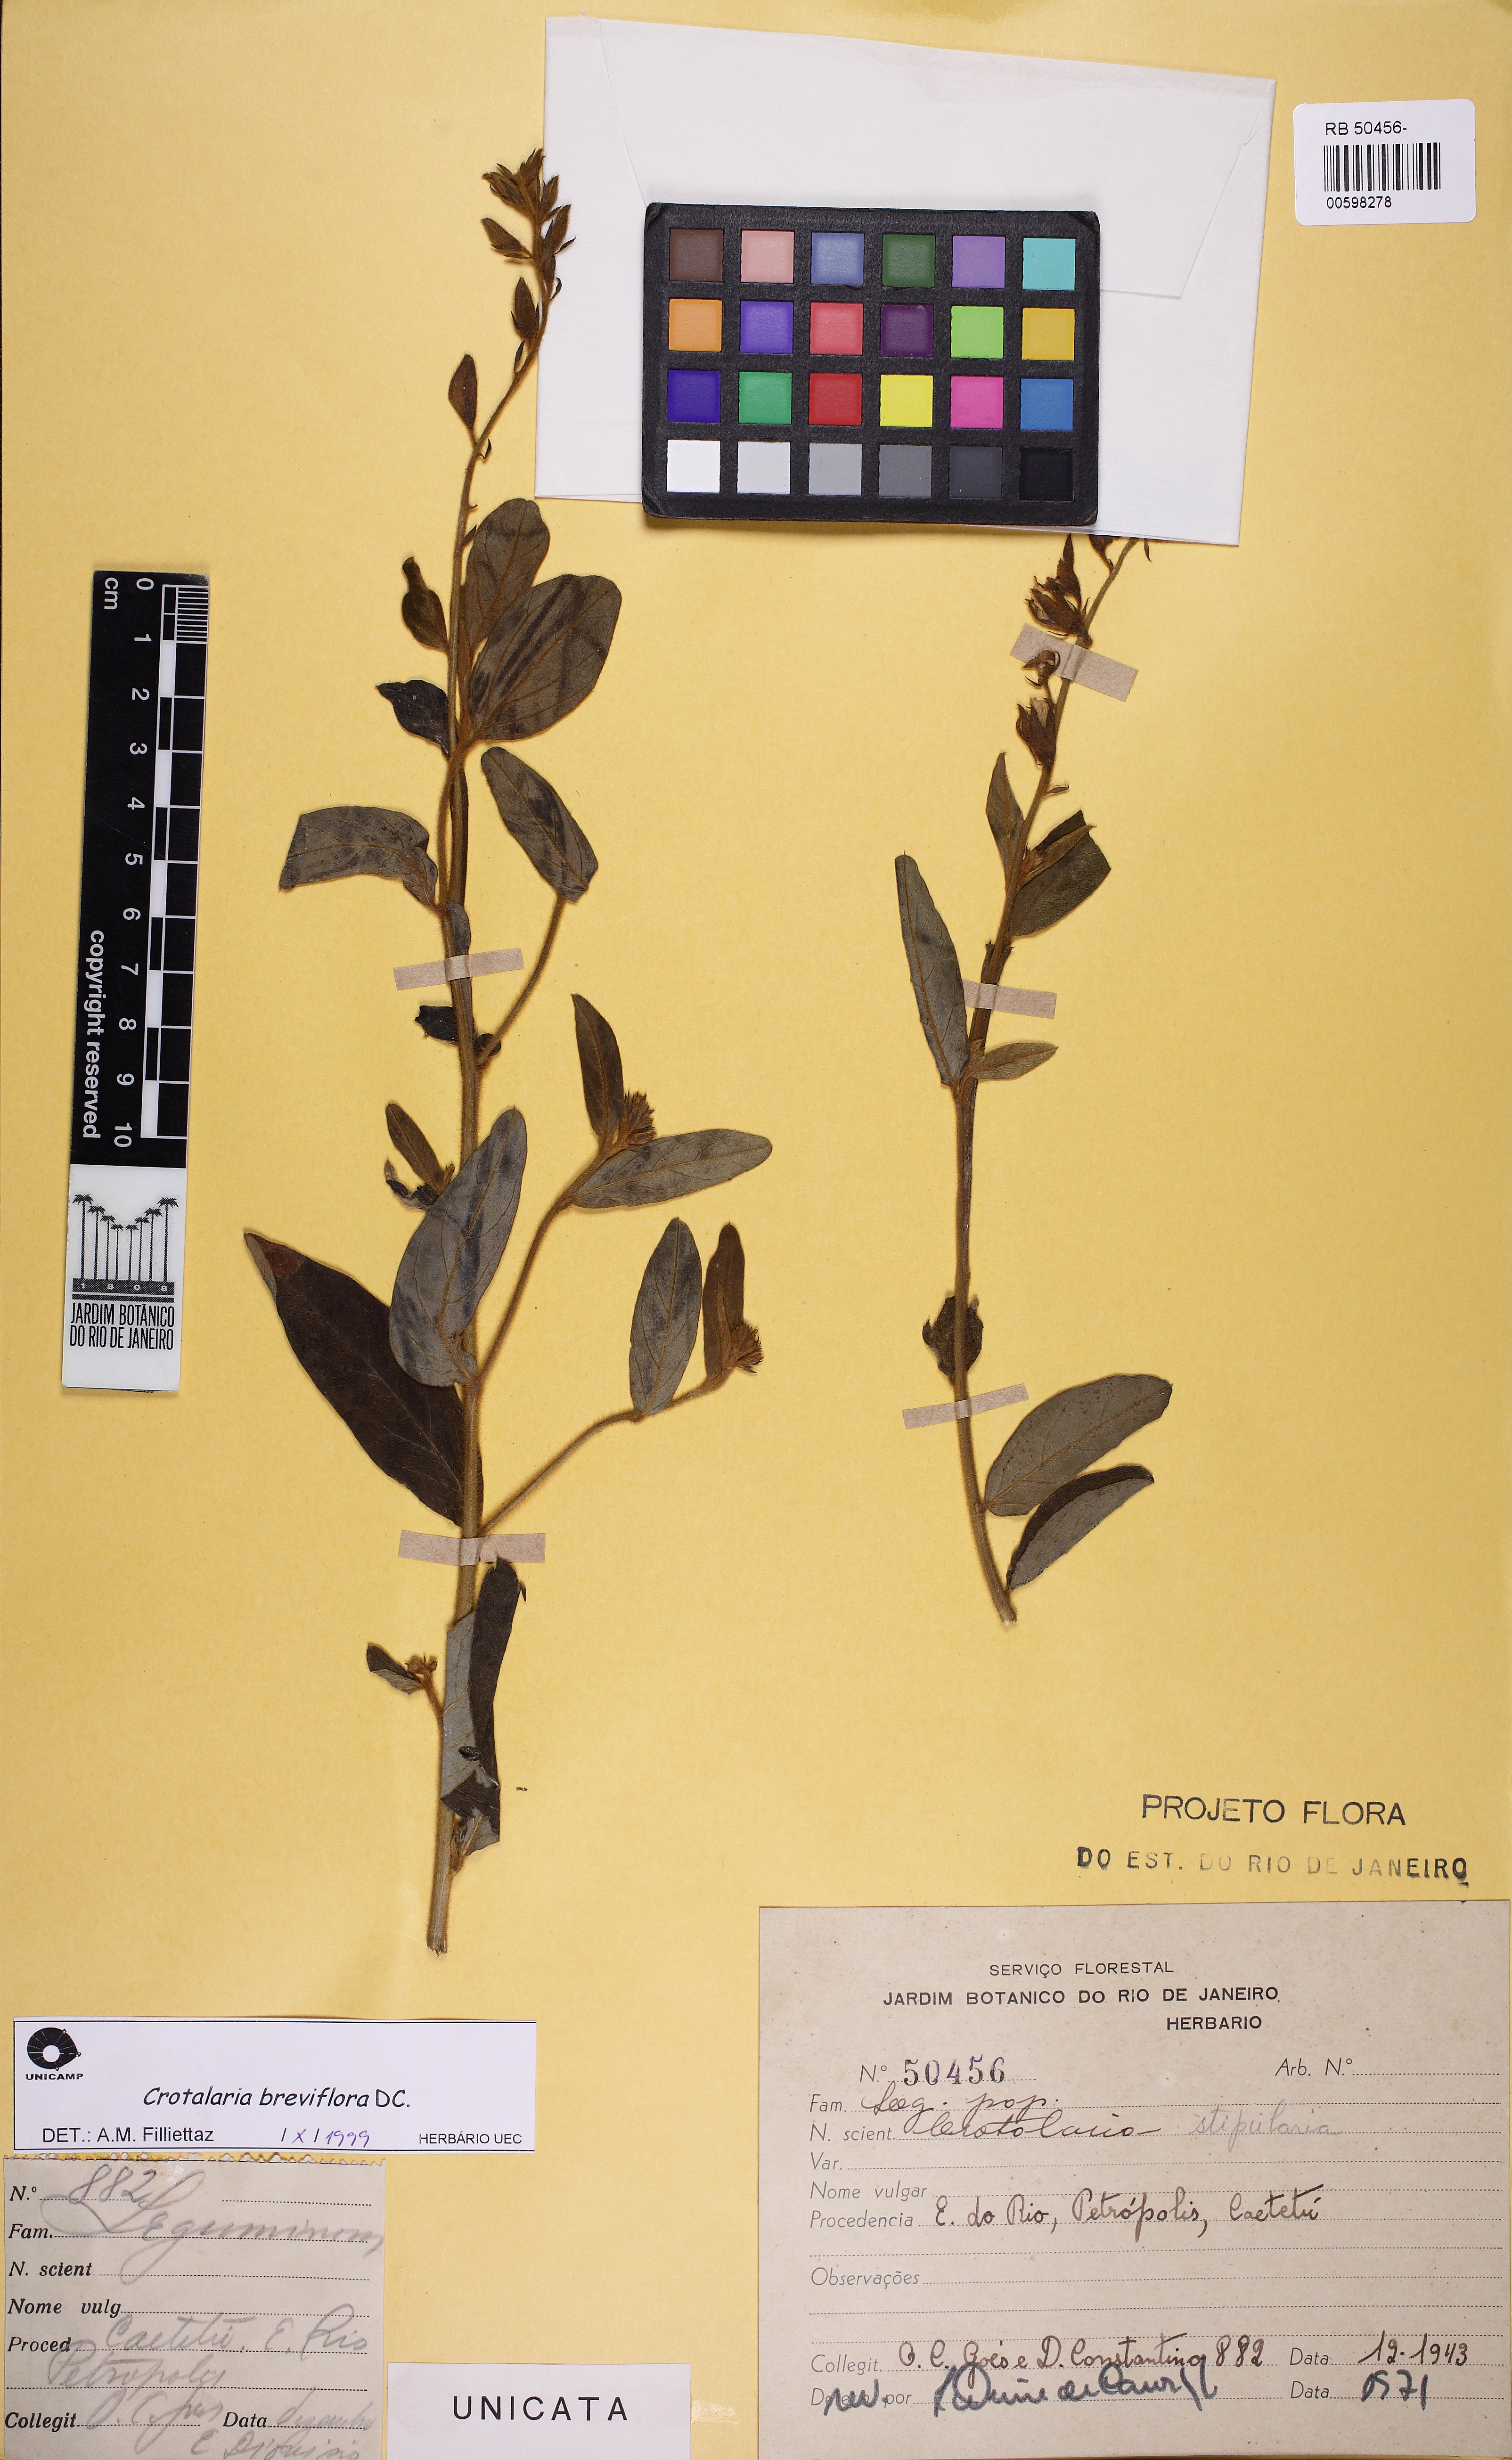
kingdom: Plantae
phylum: Tracheophyta
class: Magnoliopsida
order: Fabales
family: Fabaceae
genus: Crotalaria
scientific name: Crotalaria breviflora
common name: Short-flower crotalaria
